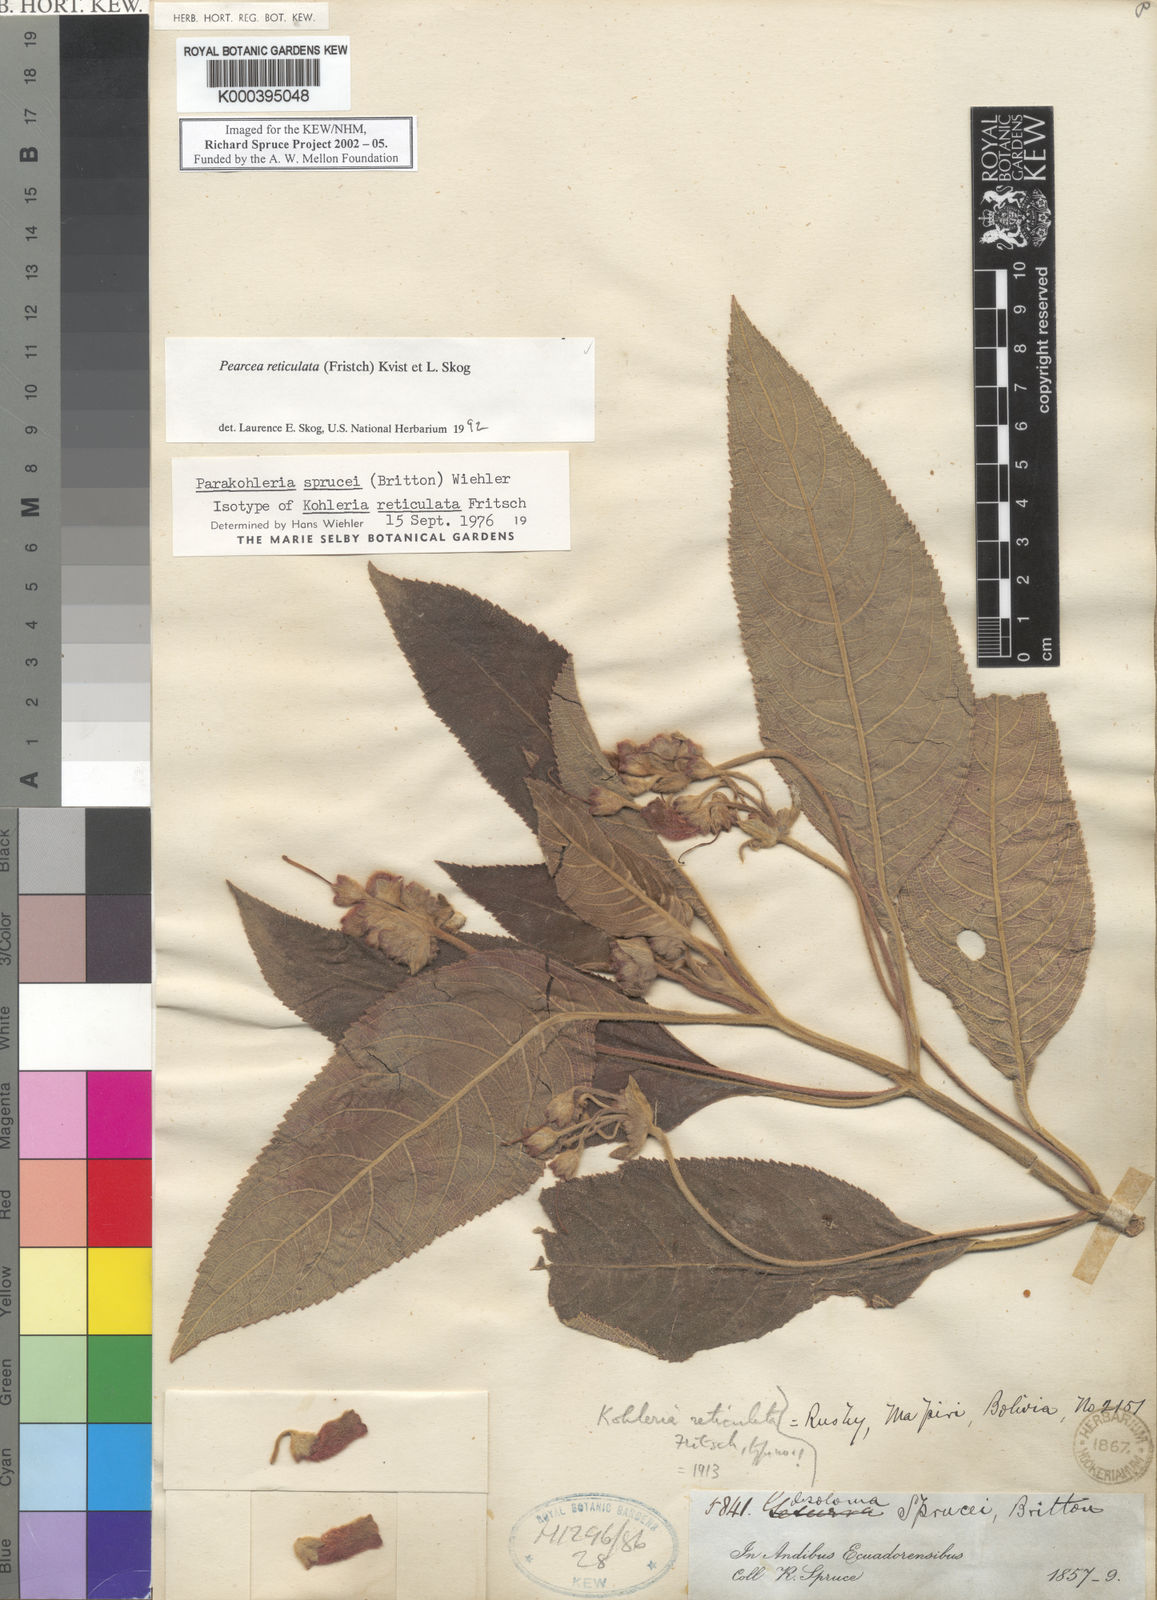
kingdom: Plantae
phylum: Tracheophyta
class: Magnoliopsida
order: Lamiales
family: Gesneriaceae
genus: Pearcea
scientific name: Pearcea reticulata
